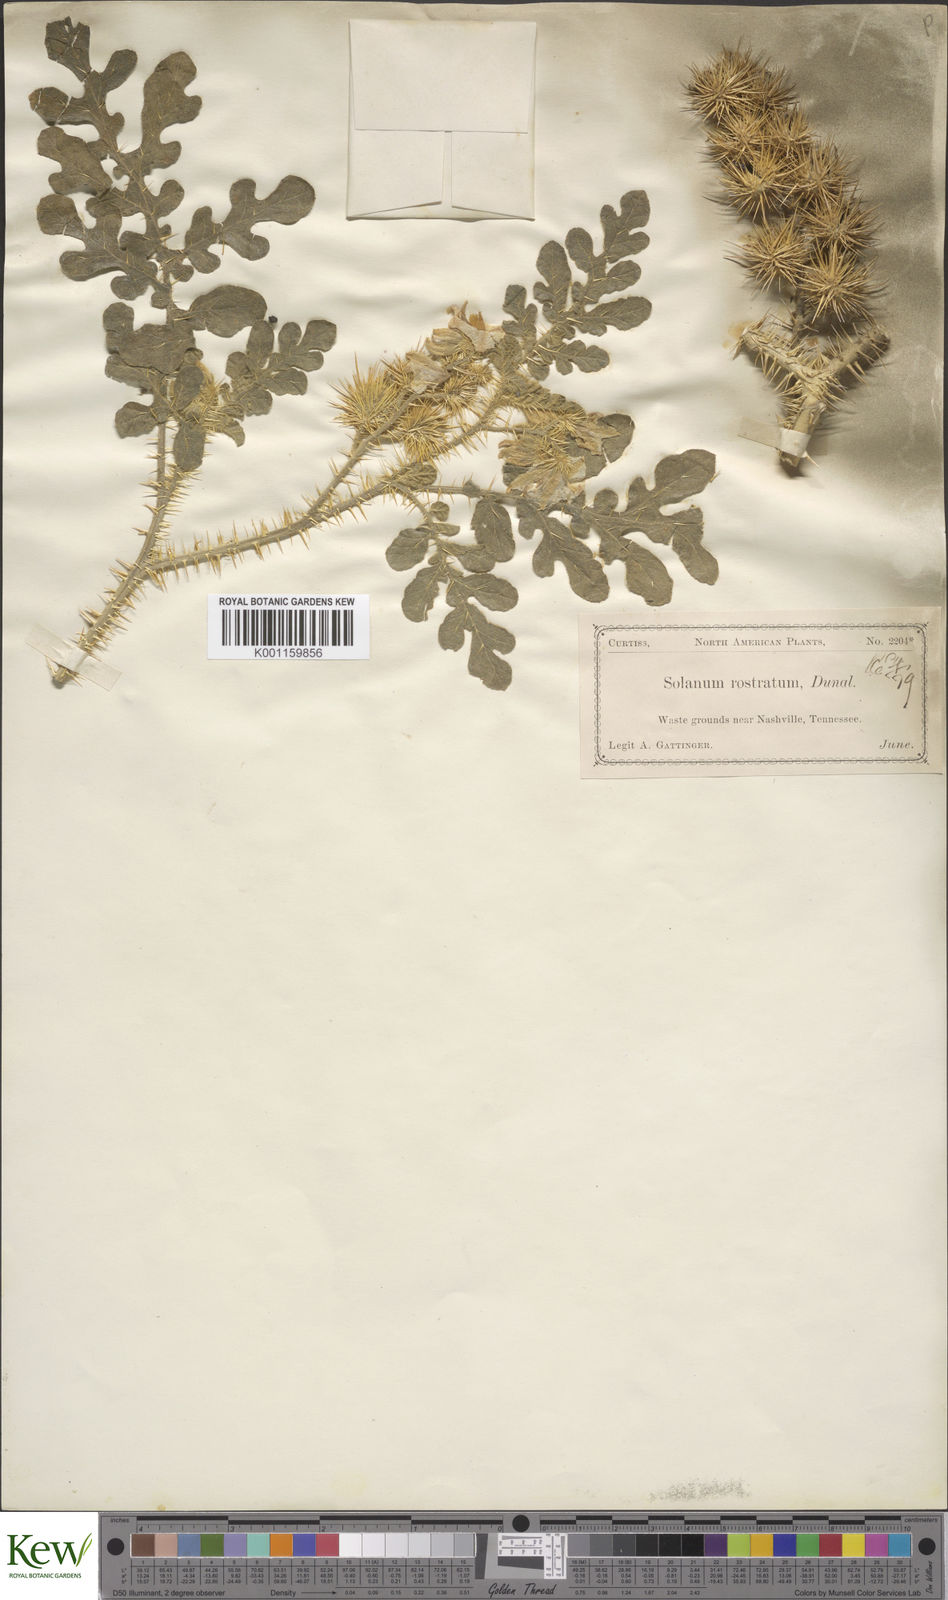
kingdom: Plantae
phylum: Tracheophyta
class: Magnoliopsida
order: Solanales
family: Solanaceae
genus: Solanum
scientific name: Solanum angustifolium
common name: Buffalobur nightshade
